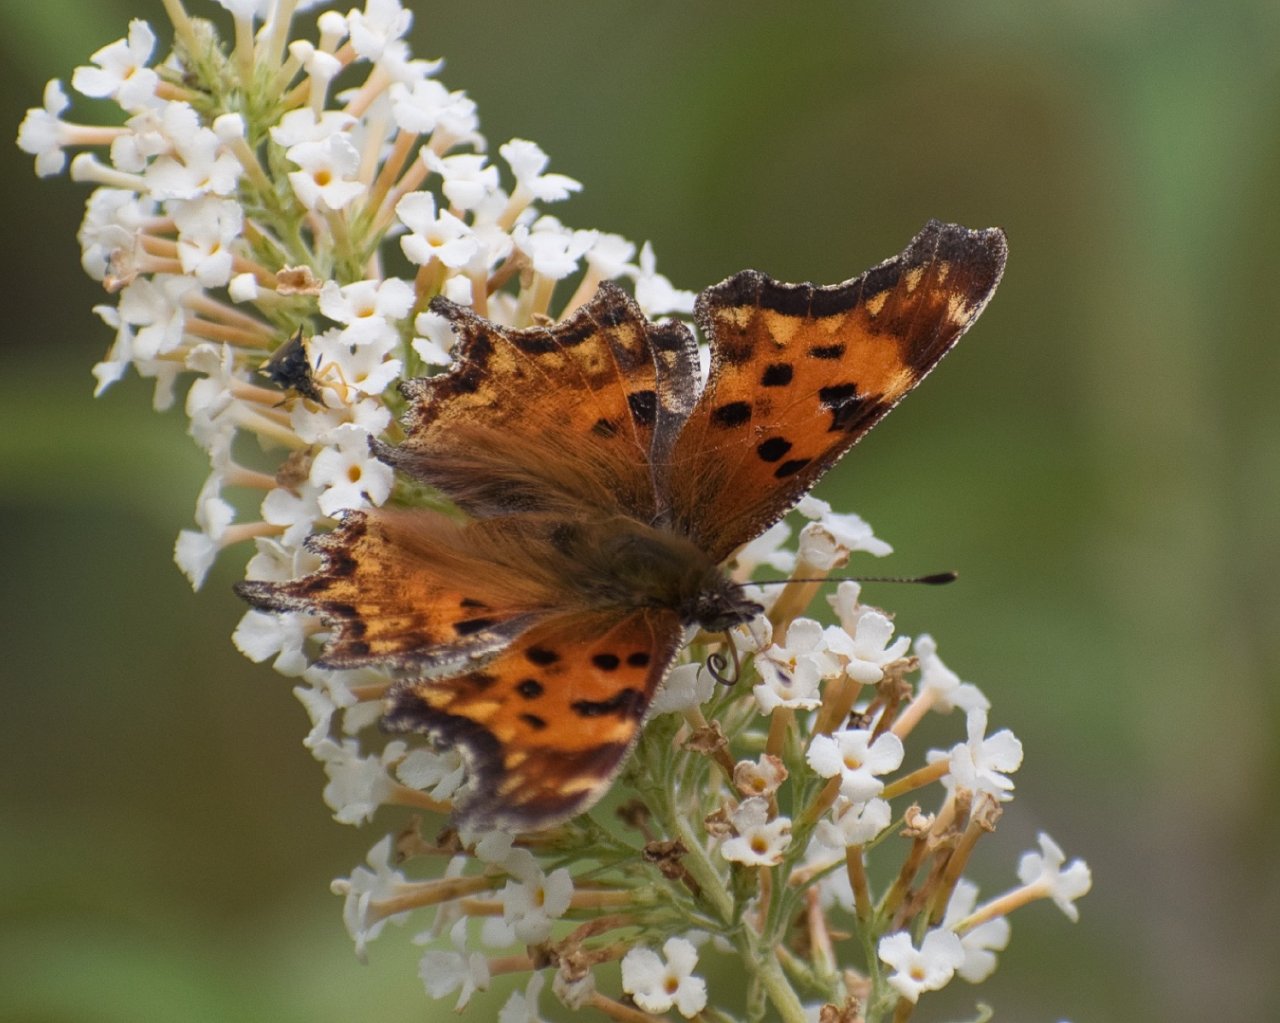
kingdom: Animalia
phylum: Arthropoda
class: Insecta
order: Lepidoptera
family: Nymphalidae
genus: Polygonia
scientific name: Polygonia gracilis
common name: Hoary Comma
